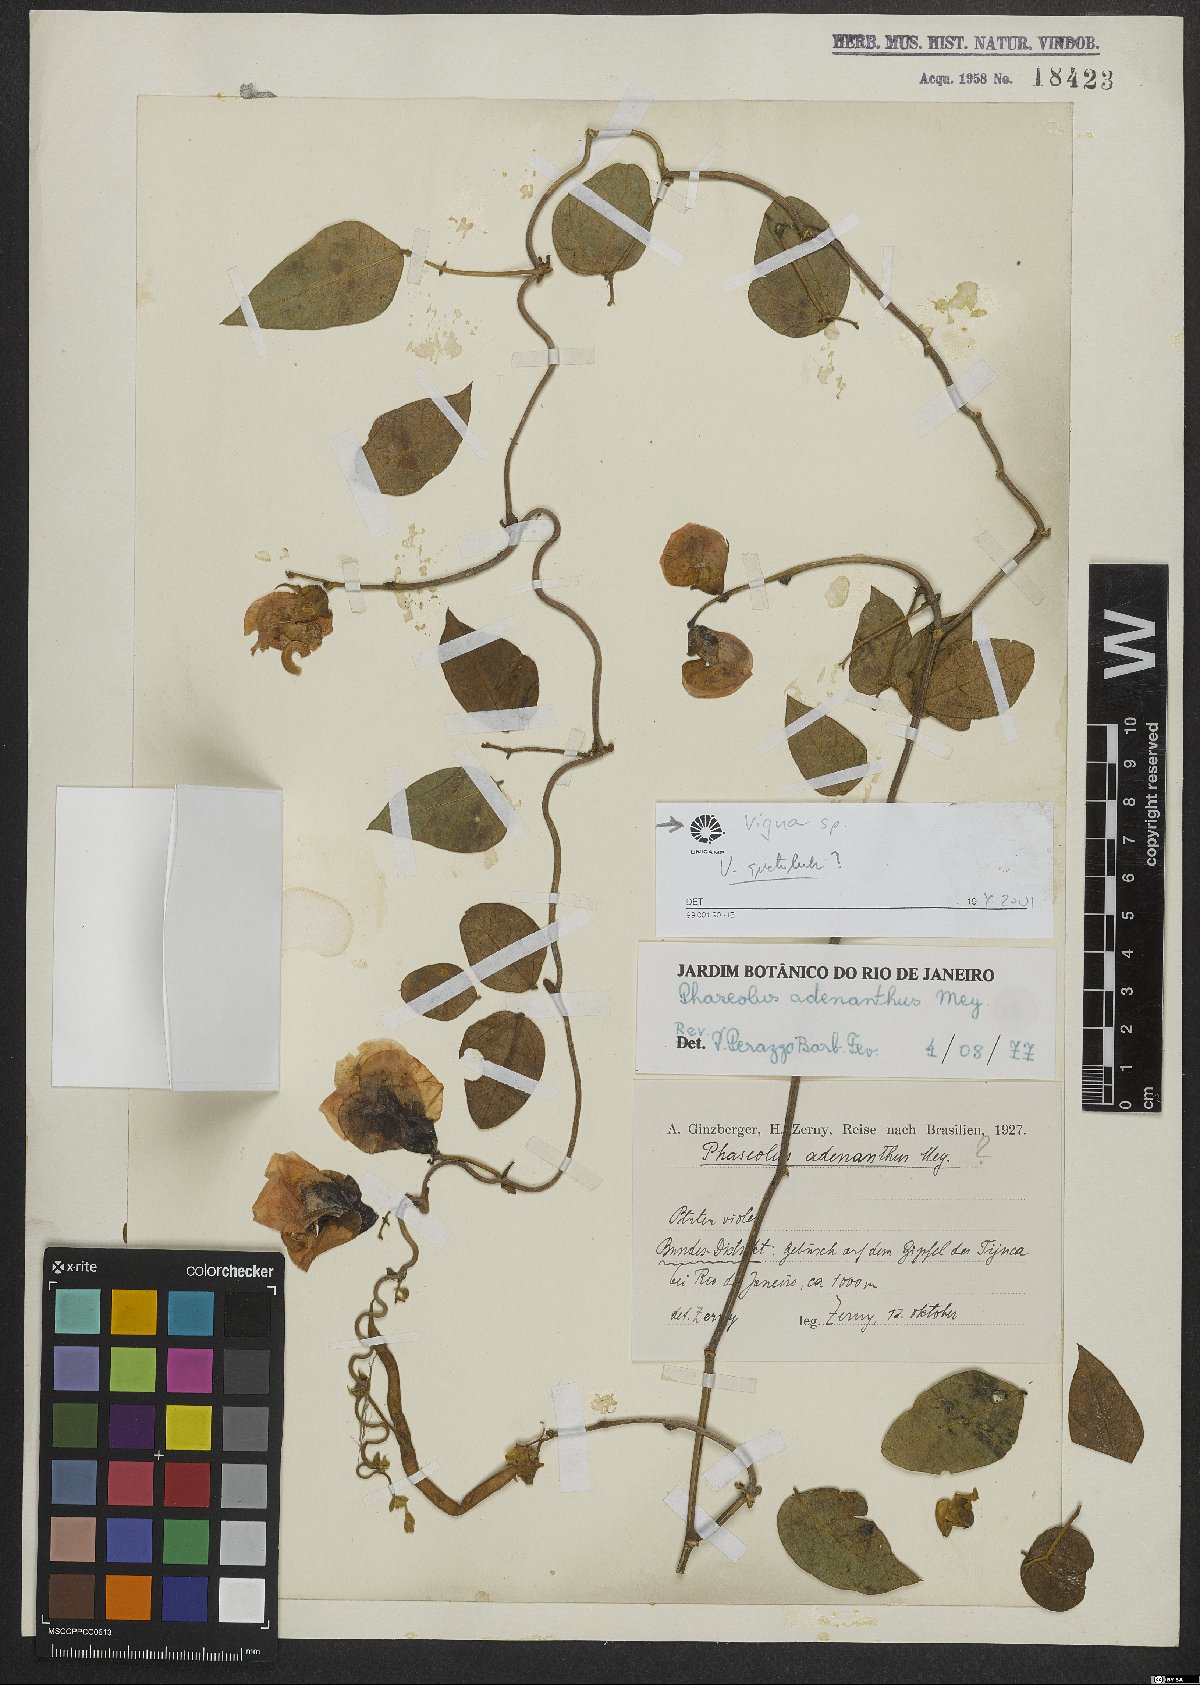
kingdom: Plantae
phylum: Tracheophyta
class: Magnoliopsida
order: Fabales
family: Fabaceae
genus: Vigna
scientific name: Vigna
